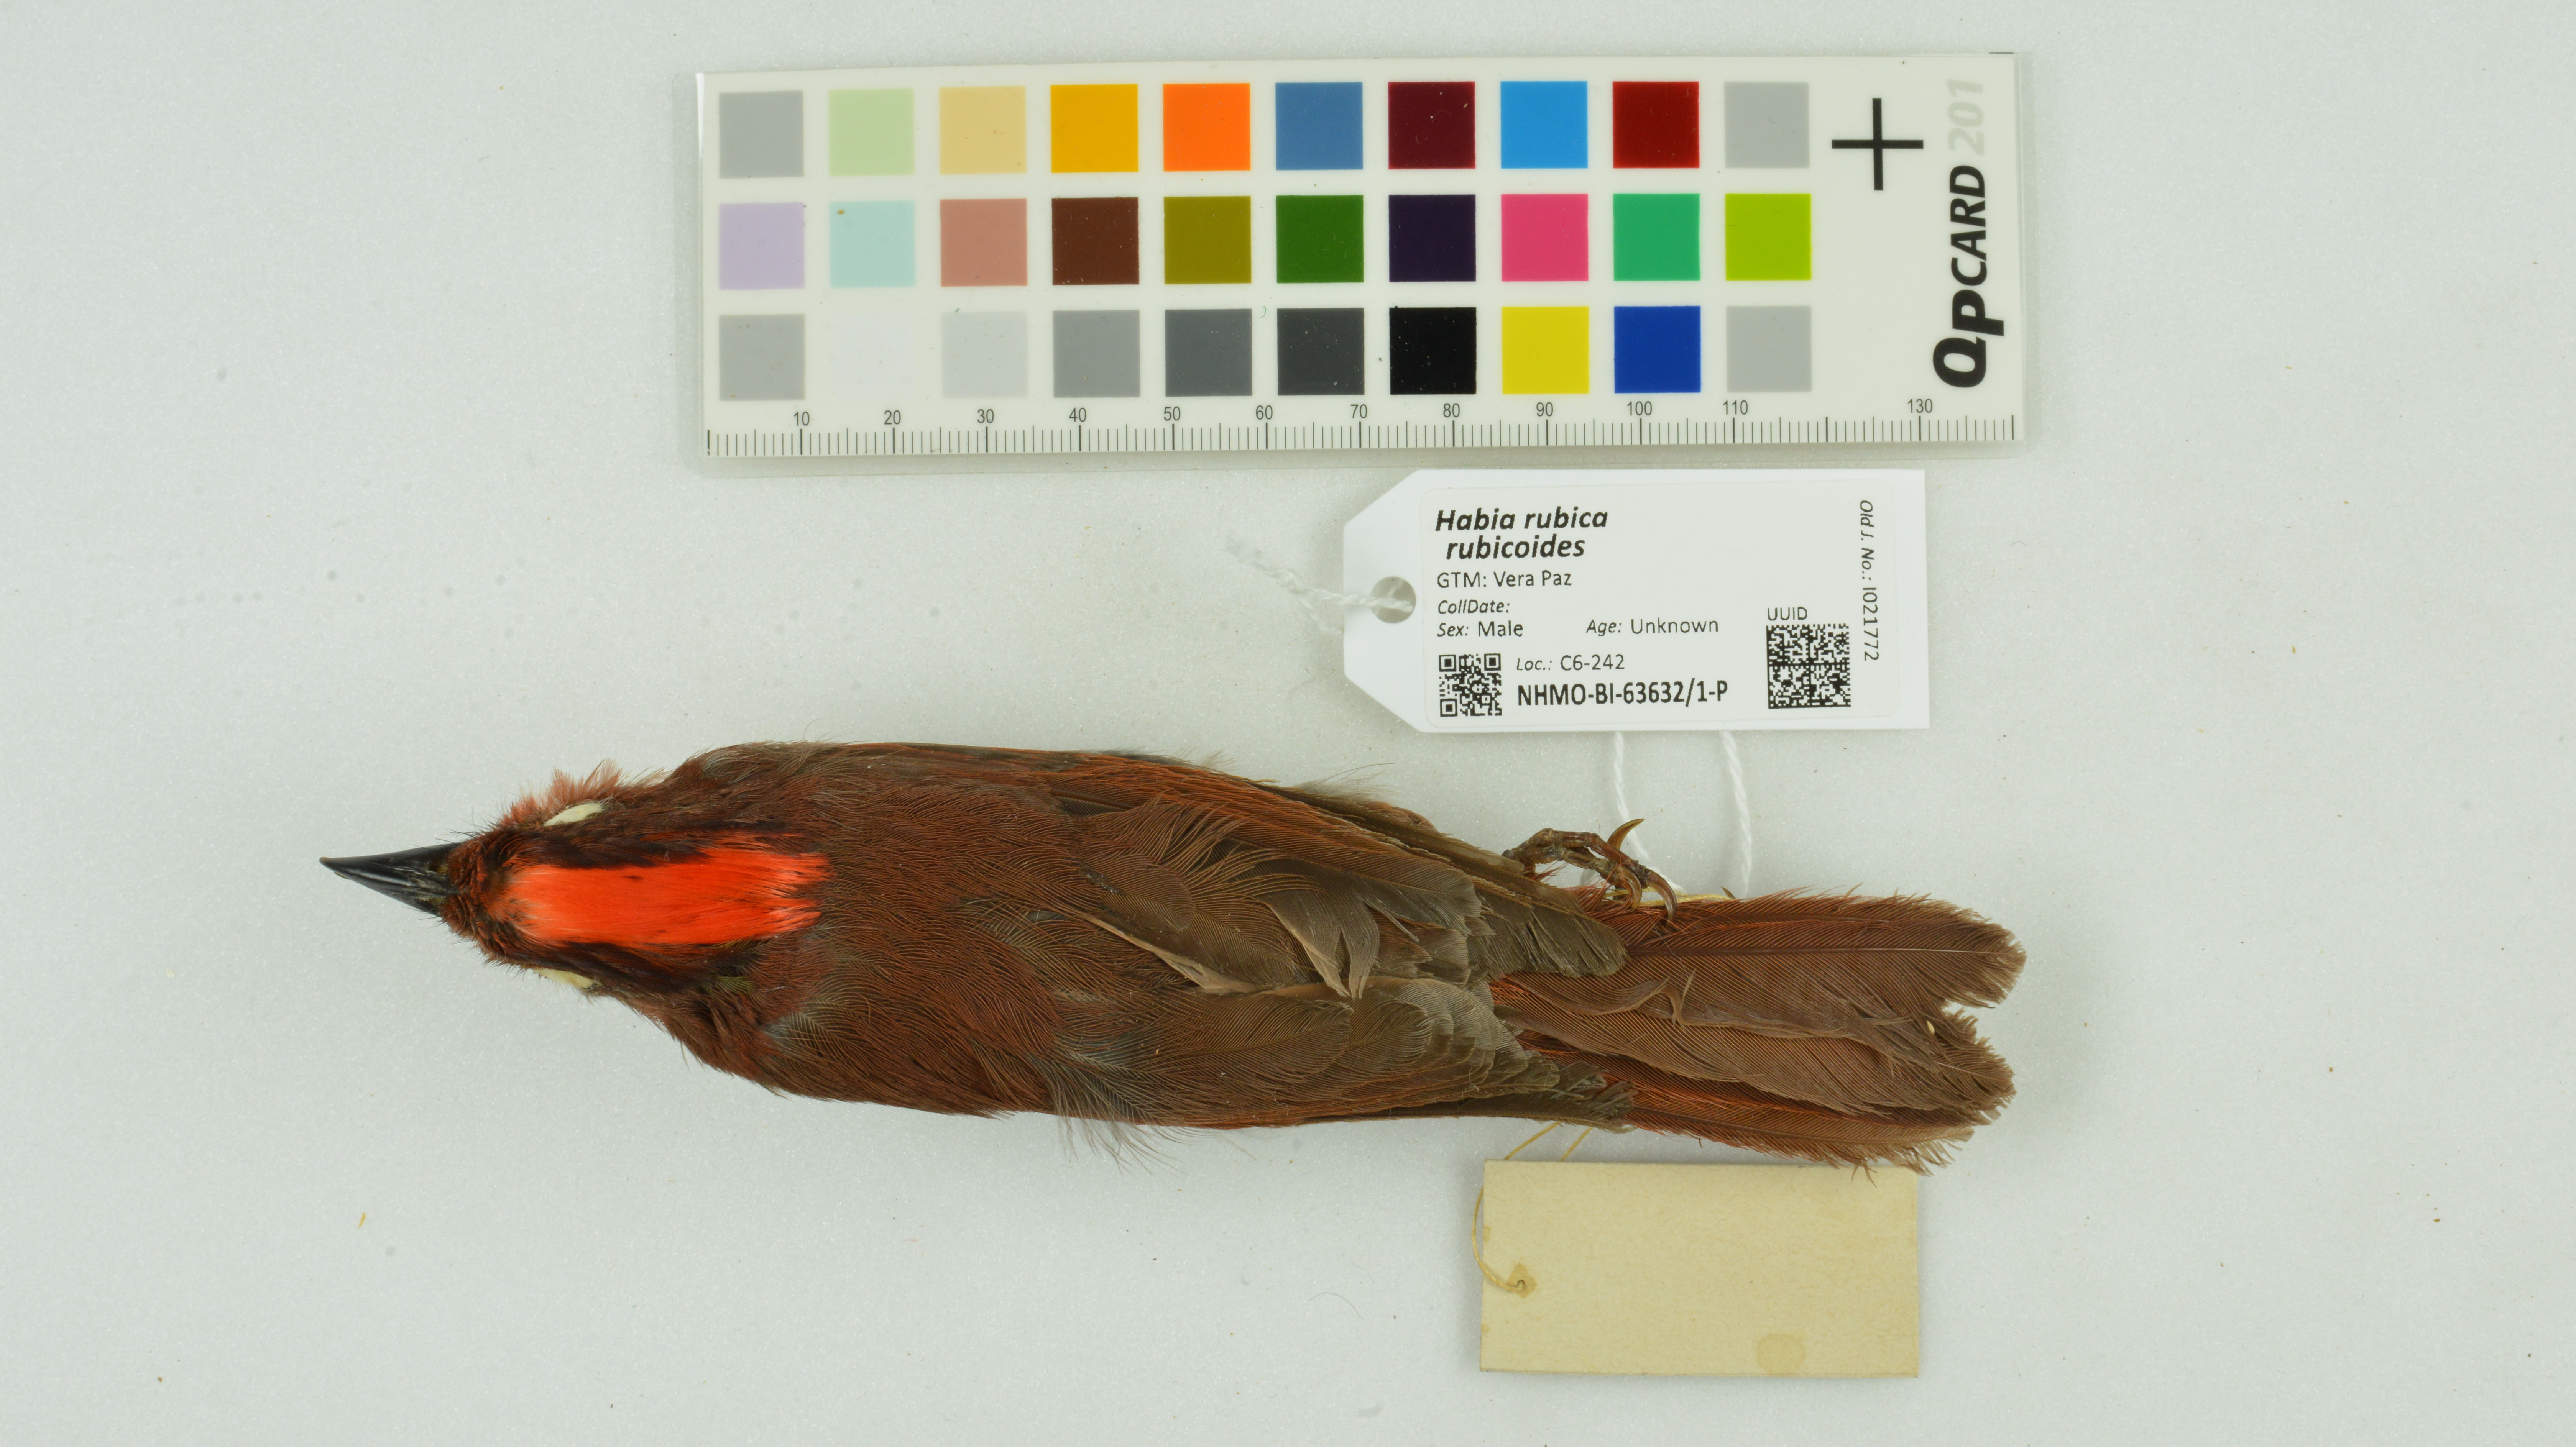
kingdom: Animalia
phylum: Chordata
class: Aves
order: Passeriformes
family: Cardinalidae
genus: Habia
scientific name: Habia rubica
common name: Red-crowned ant-tanager
